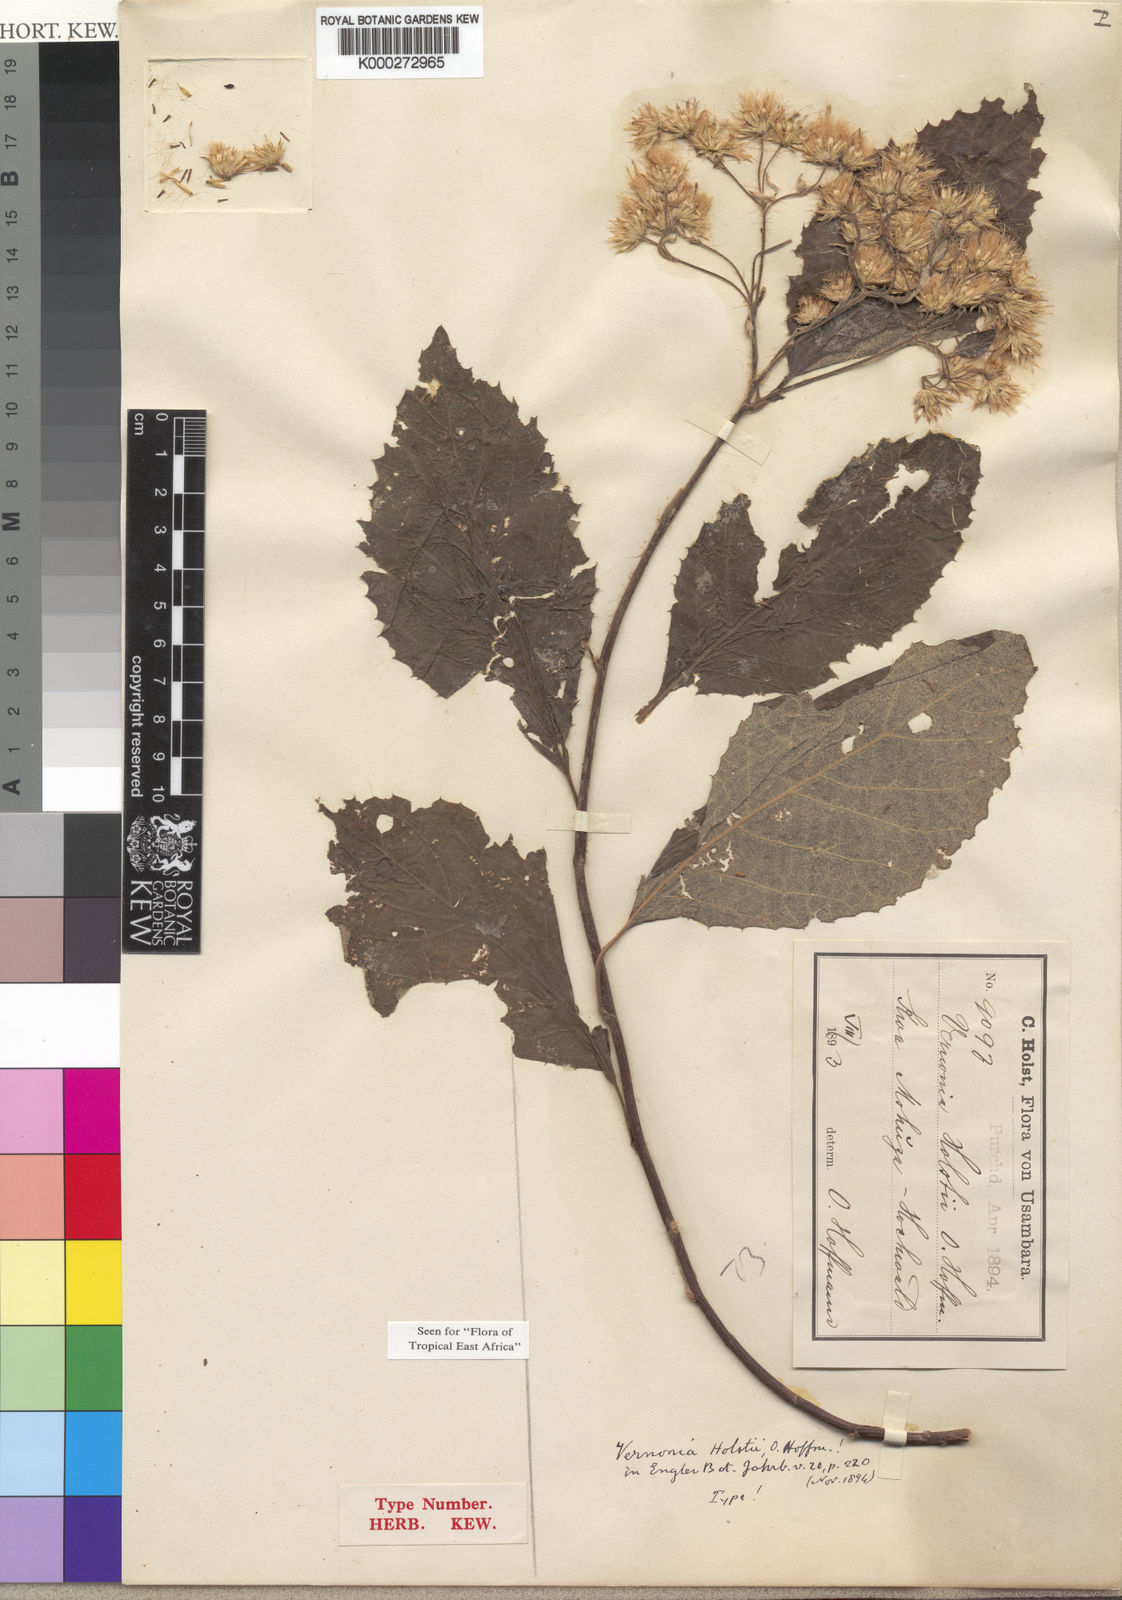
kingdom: Plantae
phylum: Tracheophyta
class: Magnoliopsida
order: Asterales
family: Asteraceae
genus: Vernonia
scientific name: Vernonia holstii
